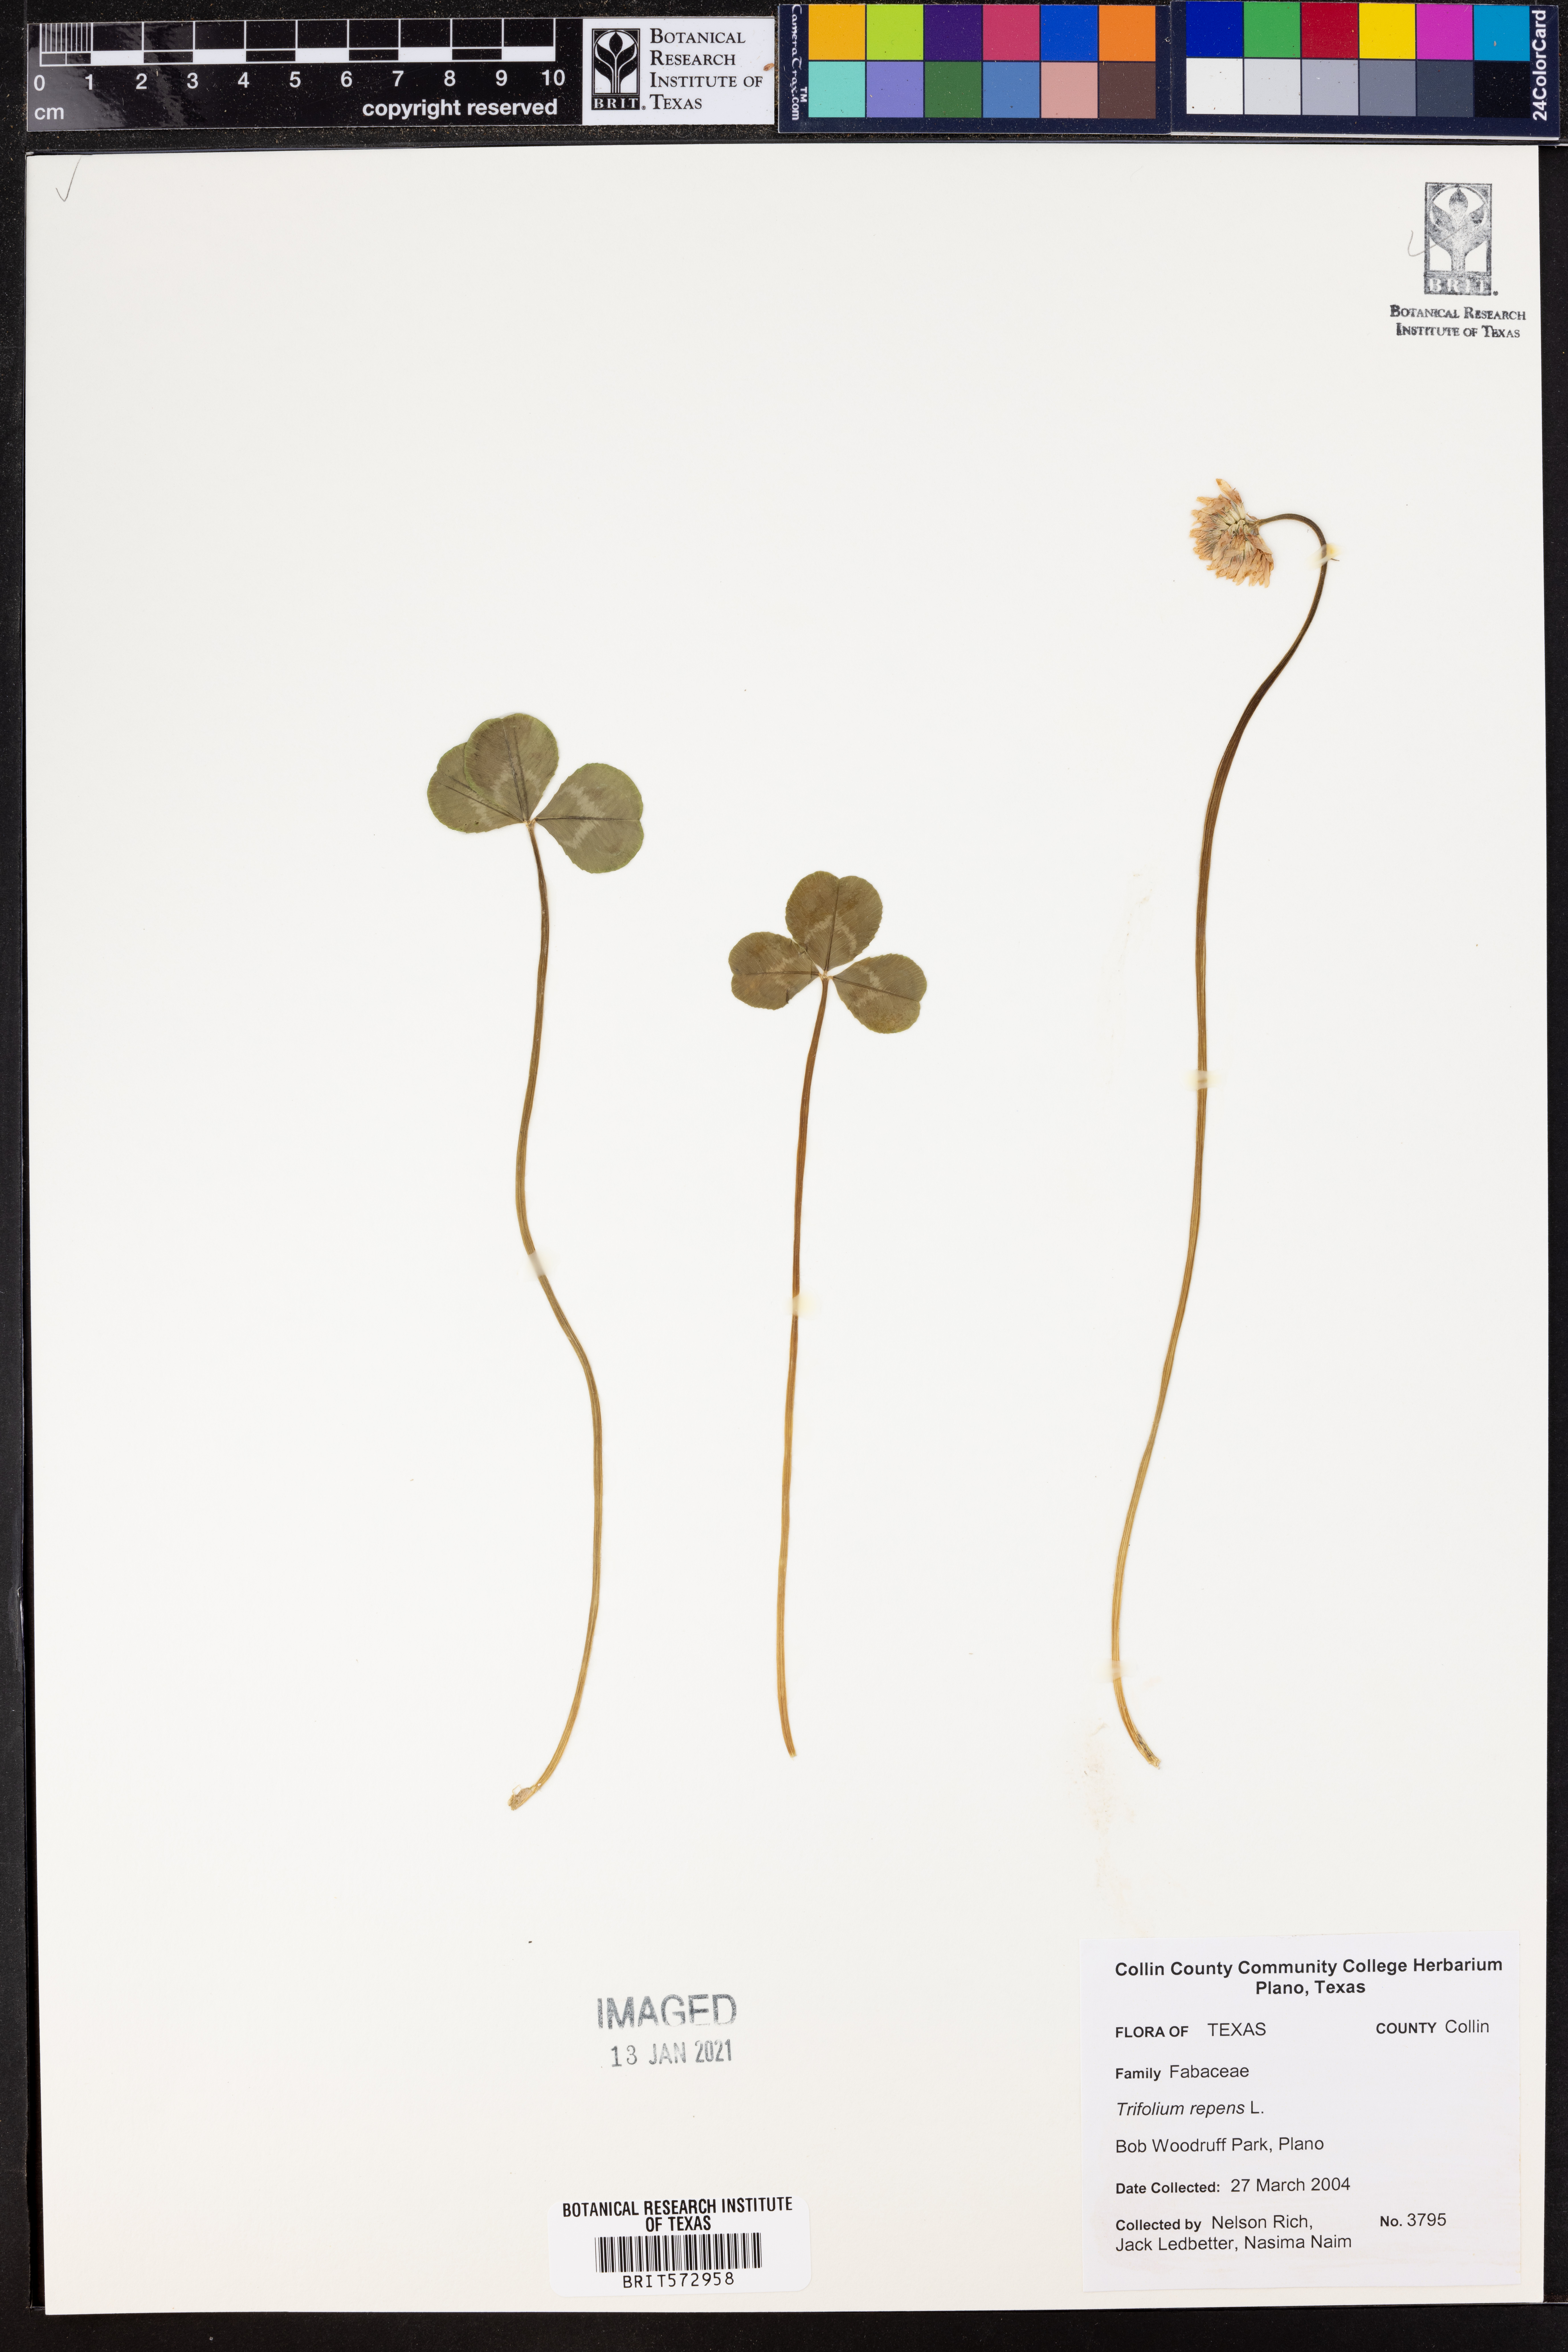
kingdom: Plantae
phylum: Tracheophyta
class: Magnoliopsida
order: Fabales
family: Fabaceae
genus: Trifolium
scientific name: Trifolium repens
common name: White clover
